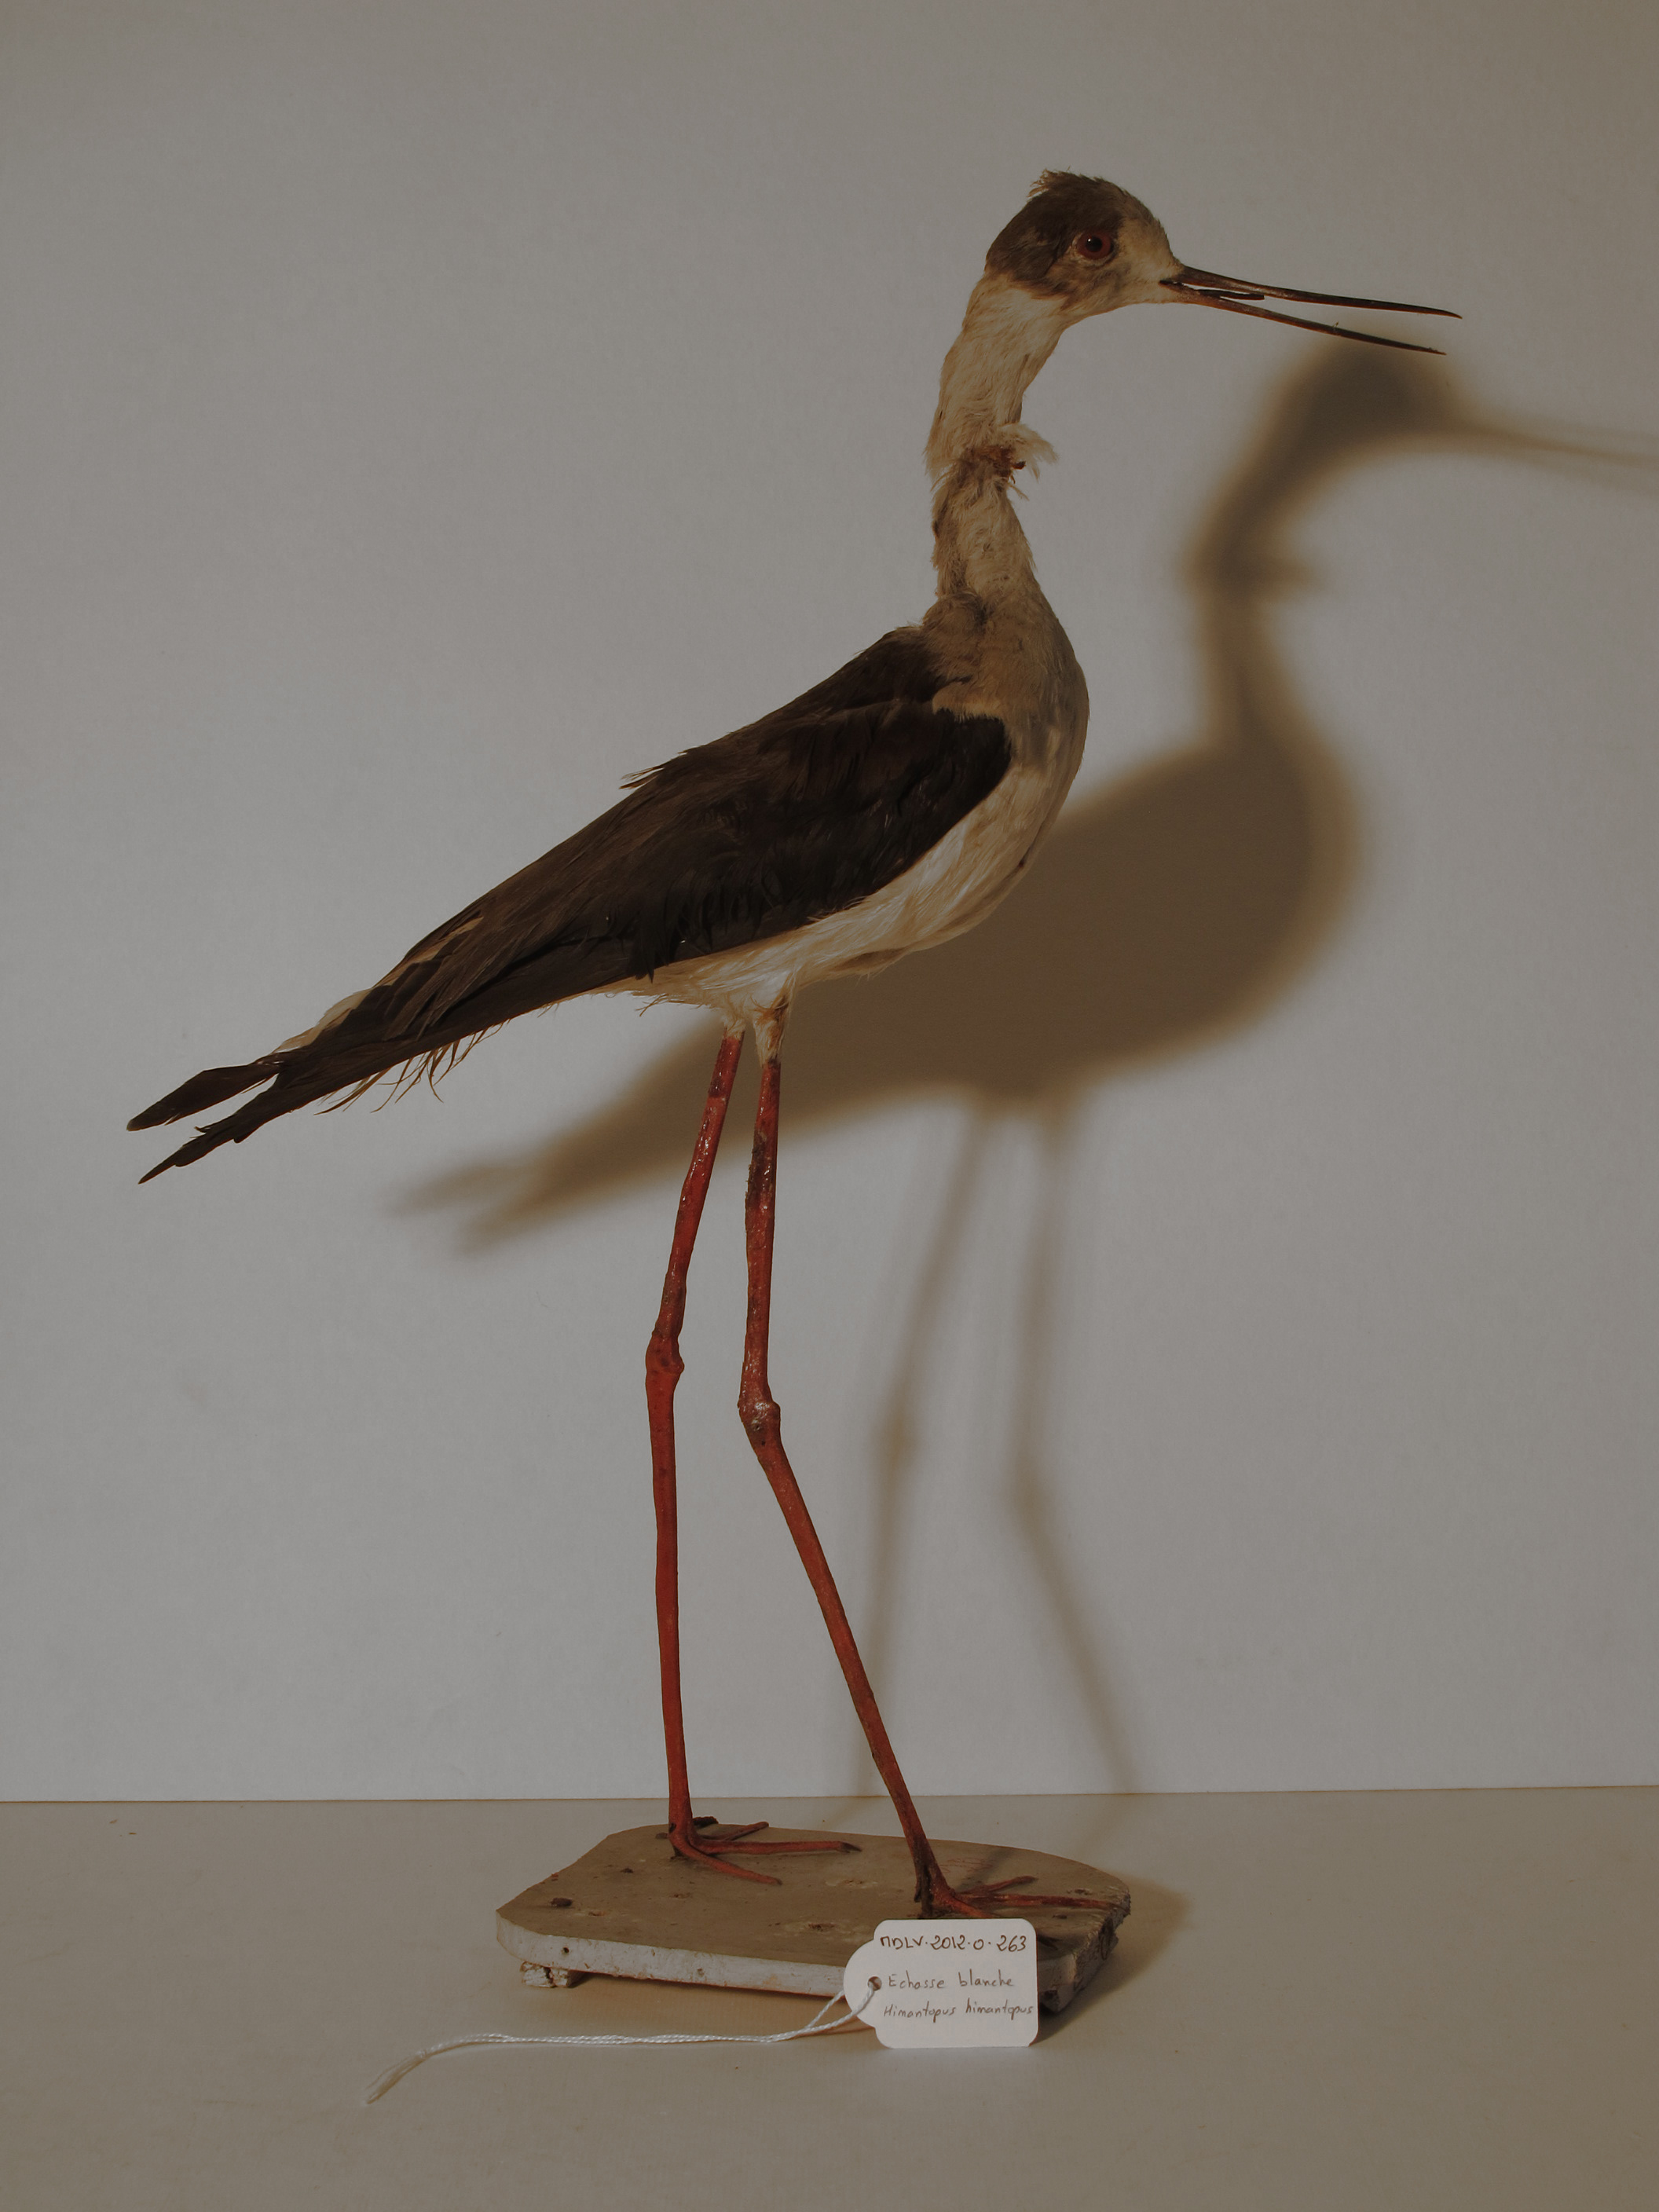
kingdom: Animalia
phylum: Chordata
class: Aves
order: Charadriiformes
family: Recurvirostridae
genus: Himantopus
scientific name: Himantopus himantopus
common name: Black-winged Stilt
